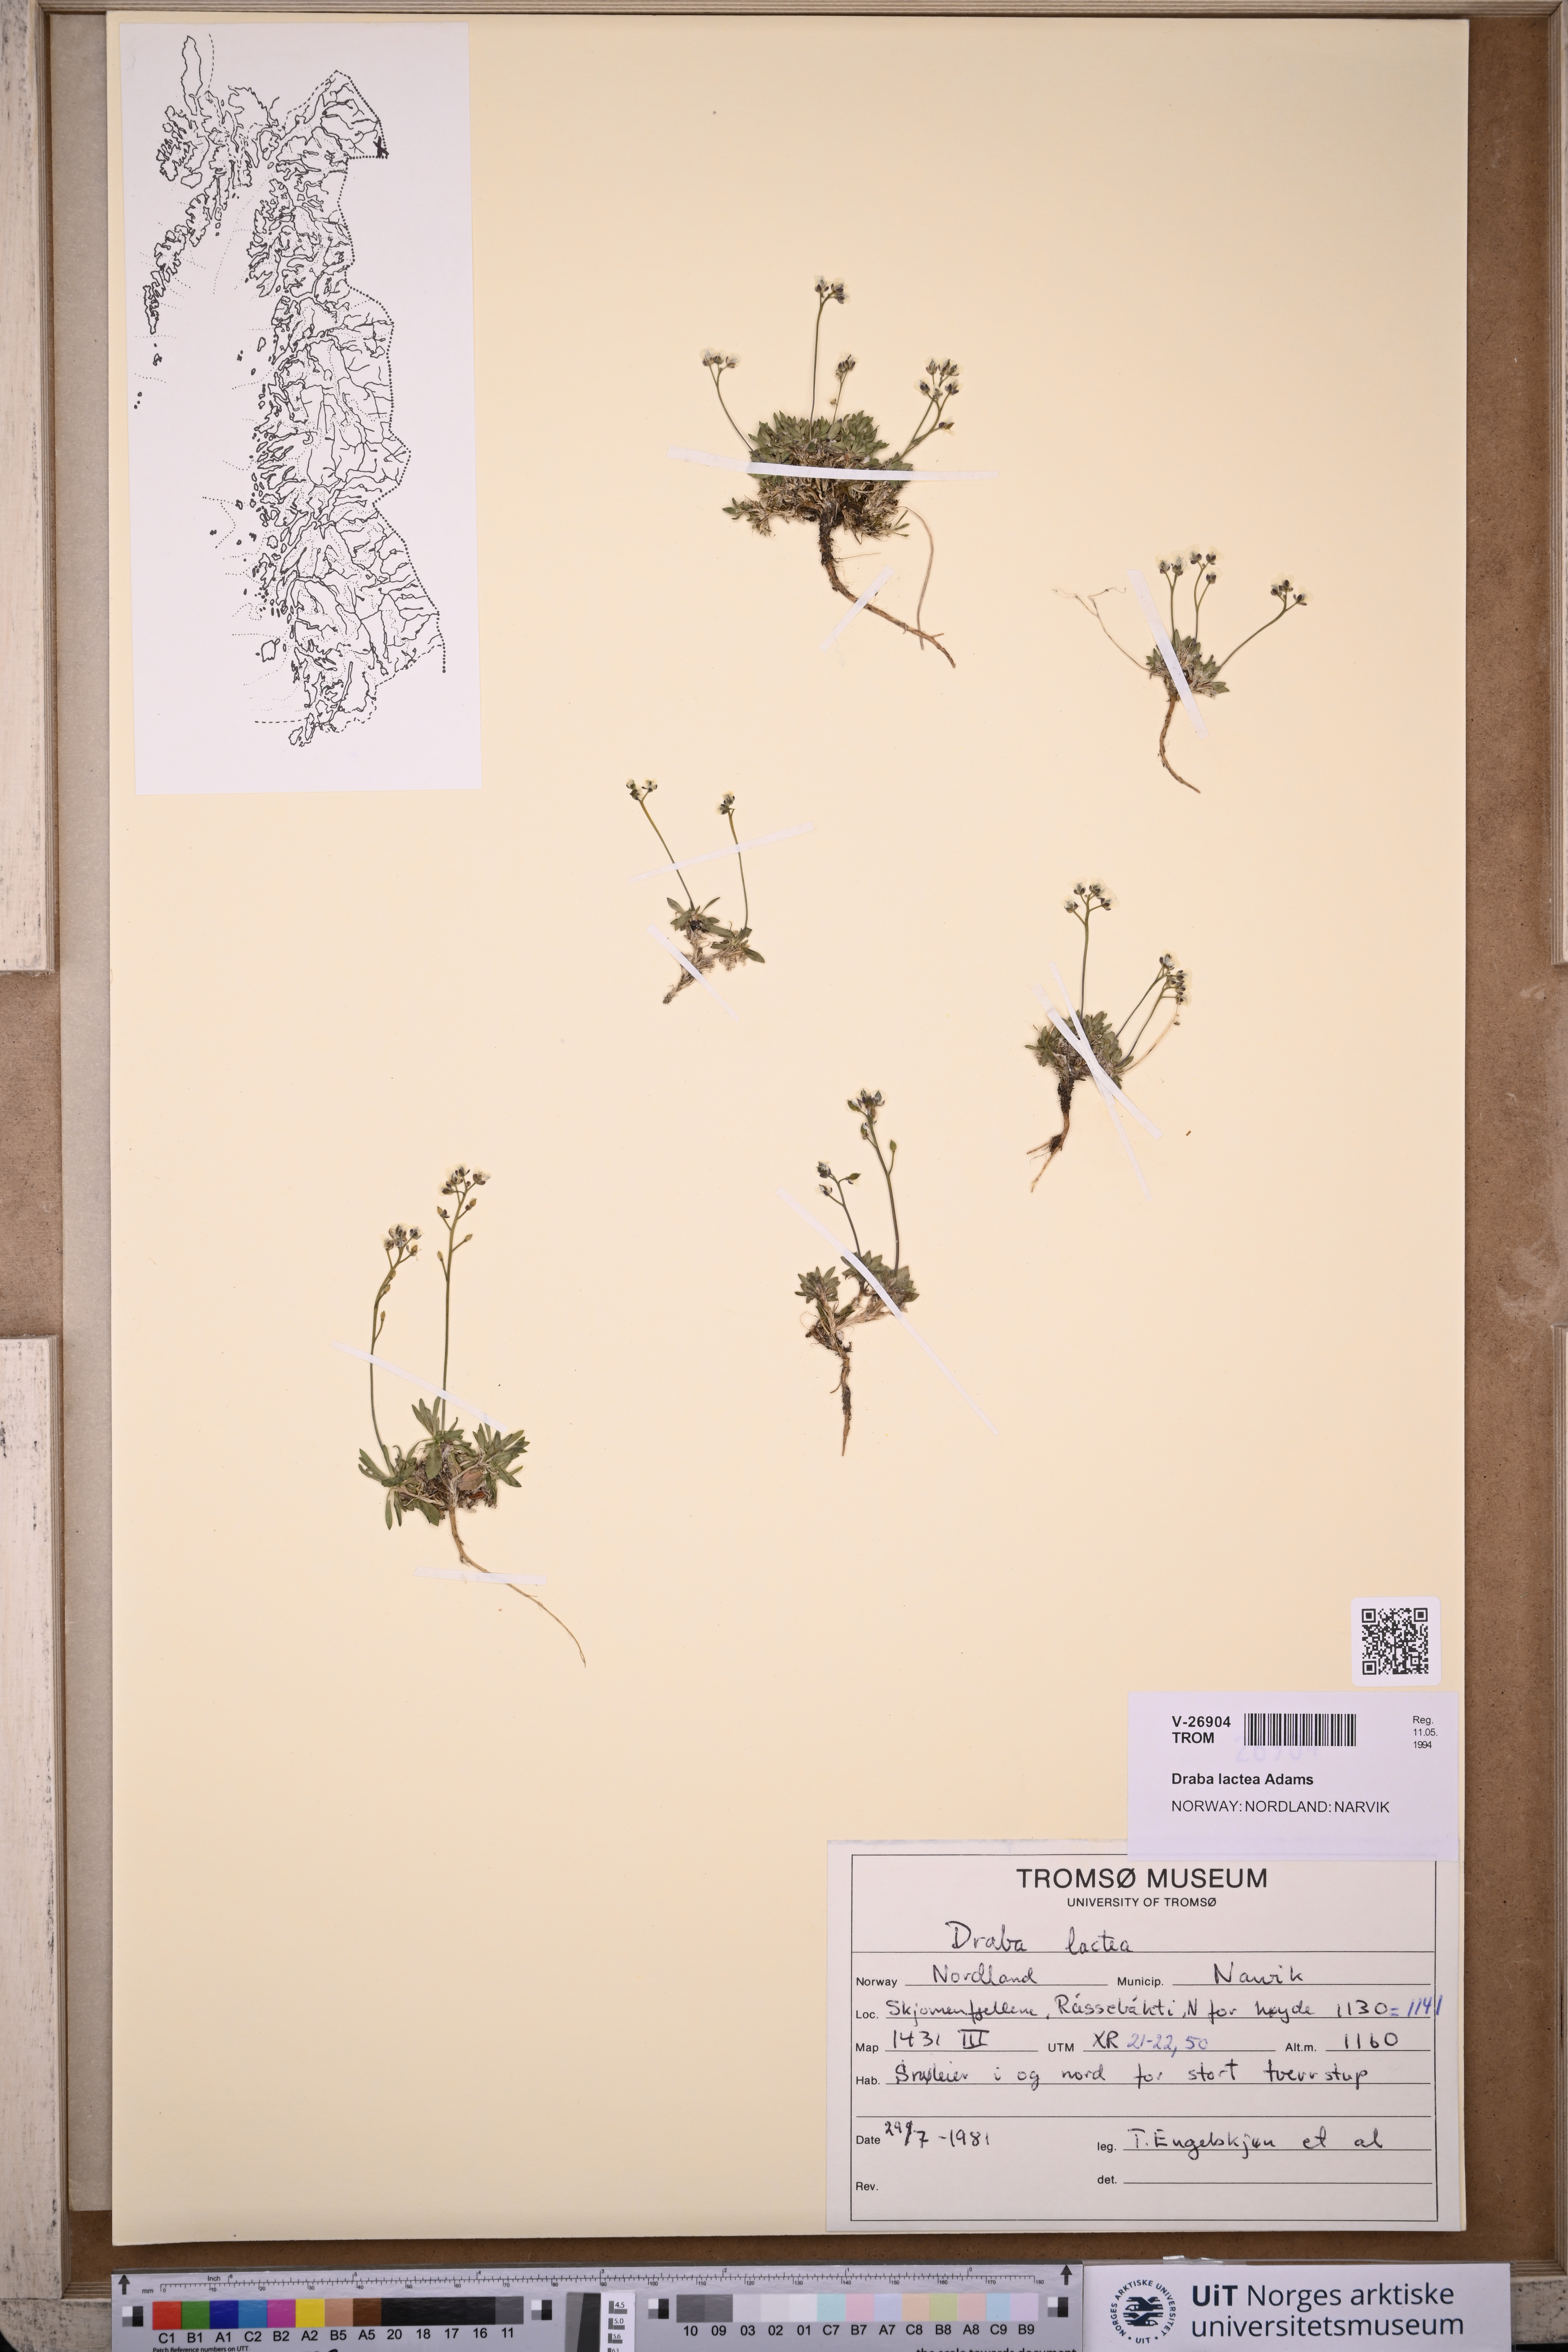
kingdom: Plantae
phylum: Tracheophyta
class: Magnoliopsida
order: Brassicales
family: Brassicaceae
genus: Draba
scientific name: Draba lactea
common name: Milky draba
